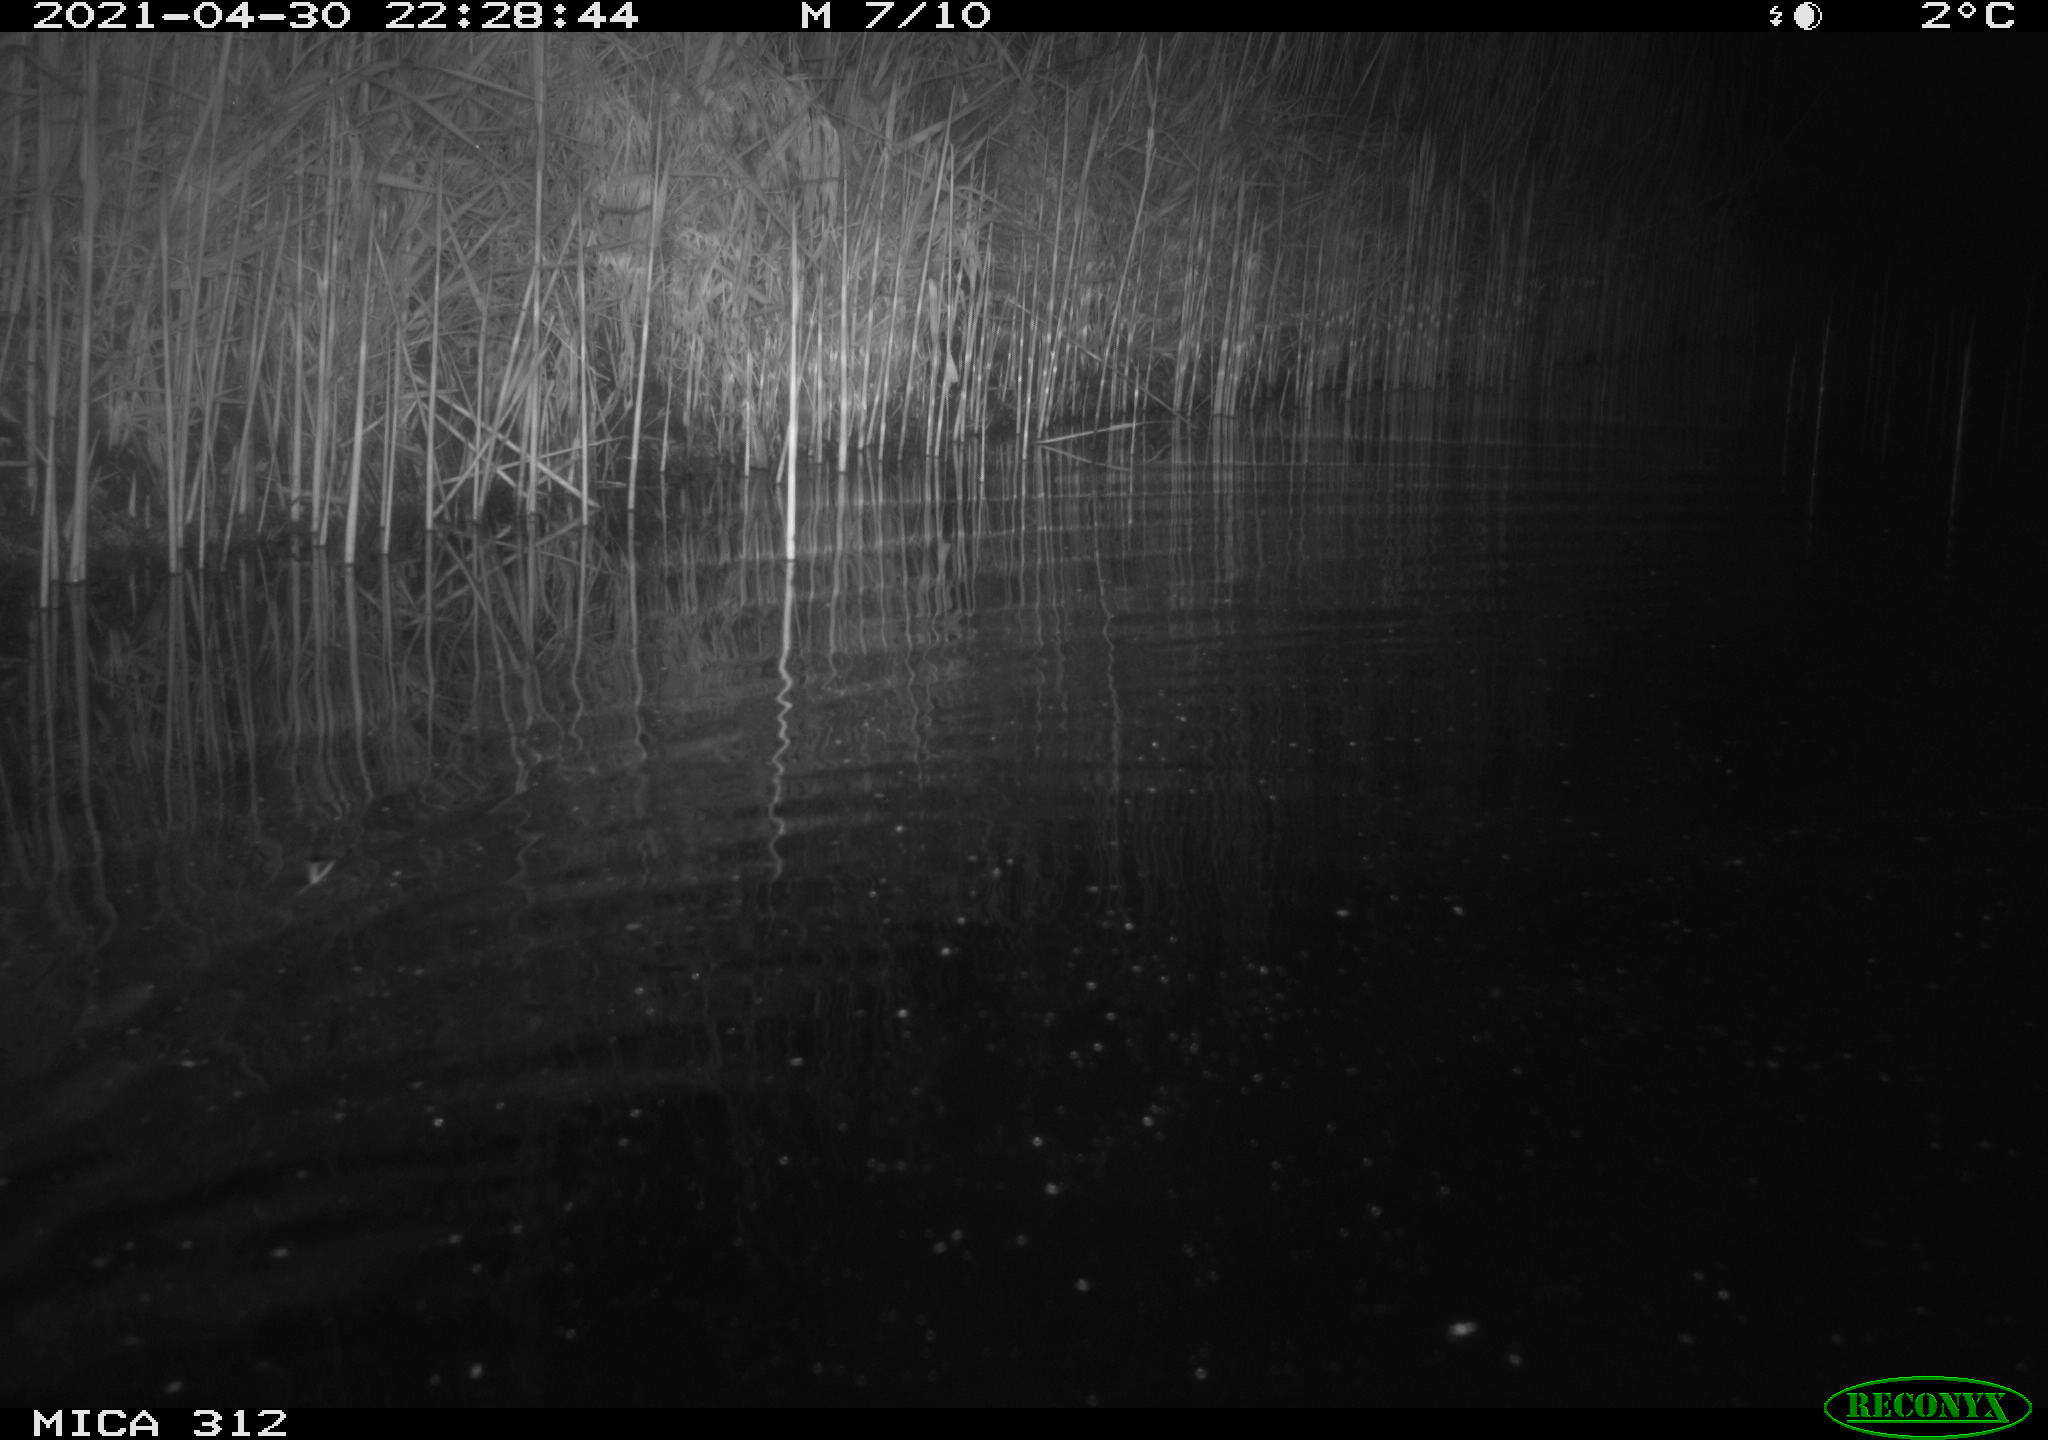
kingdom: Animalia
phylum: Chordata
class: Mammalia
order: Rodentia
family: Muridae
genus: Rattus
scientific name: Rattus norvegicus
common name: Brown rat
